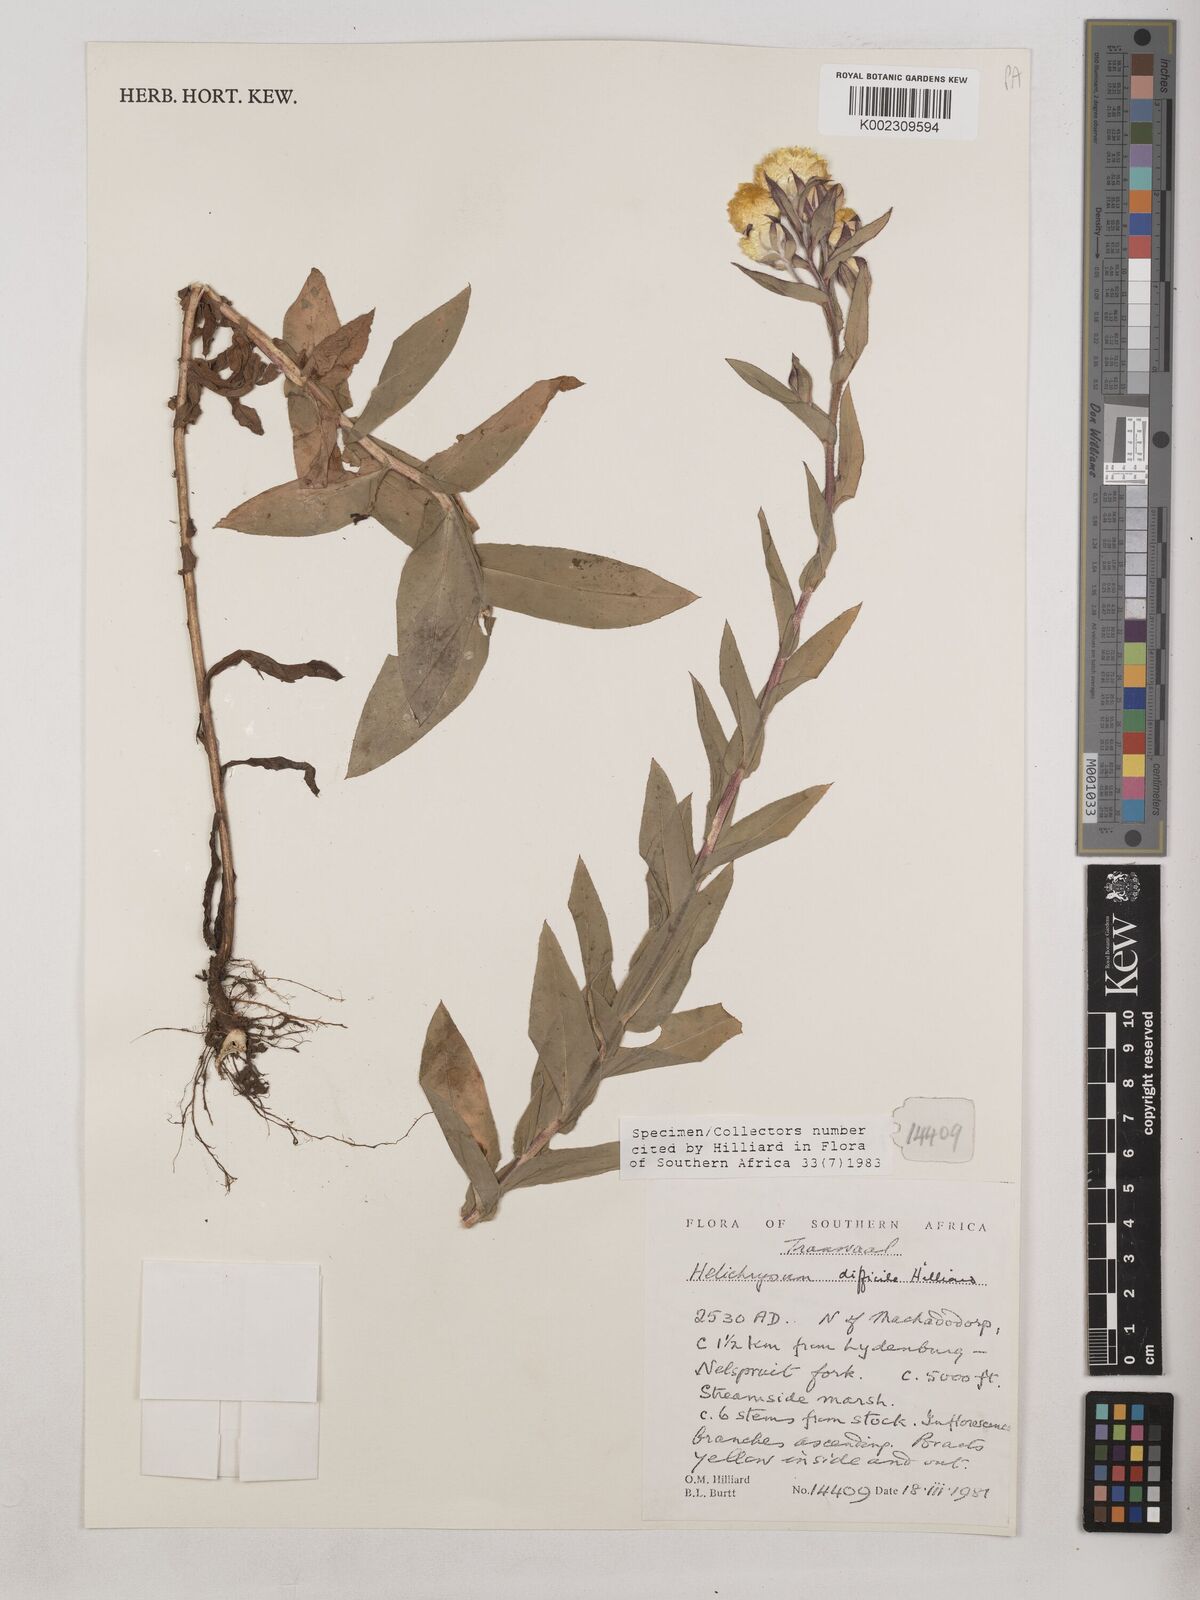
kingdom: Plantae
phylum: Tracheophyta
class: Magnoliopsida
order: Asterales
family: Asteraceae
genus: Helichrysum
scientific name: Helichrysum difficile
